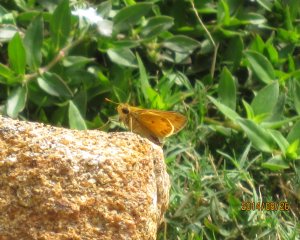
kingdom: Animalia
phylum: Arthropoda
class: Insecta
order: Lepidoptera
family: Hesperiidae
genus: Hylephila
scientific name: Hylephila phyleus
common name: Fiery Skipper
